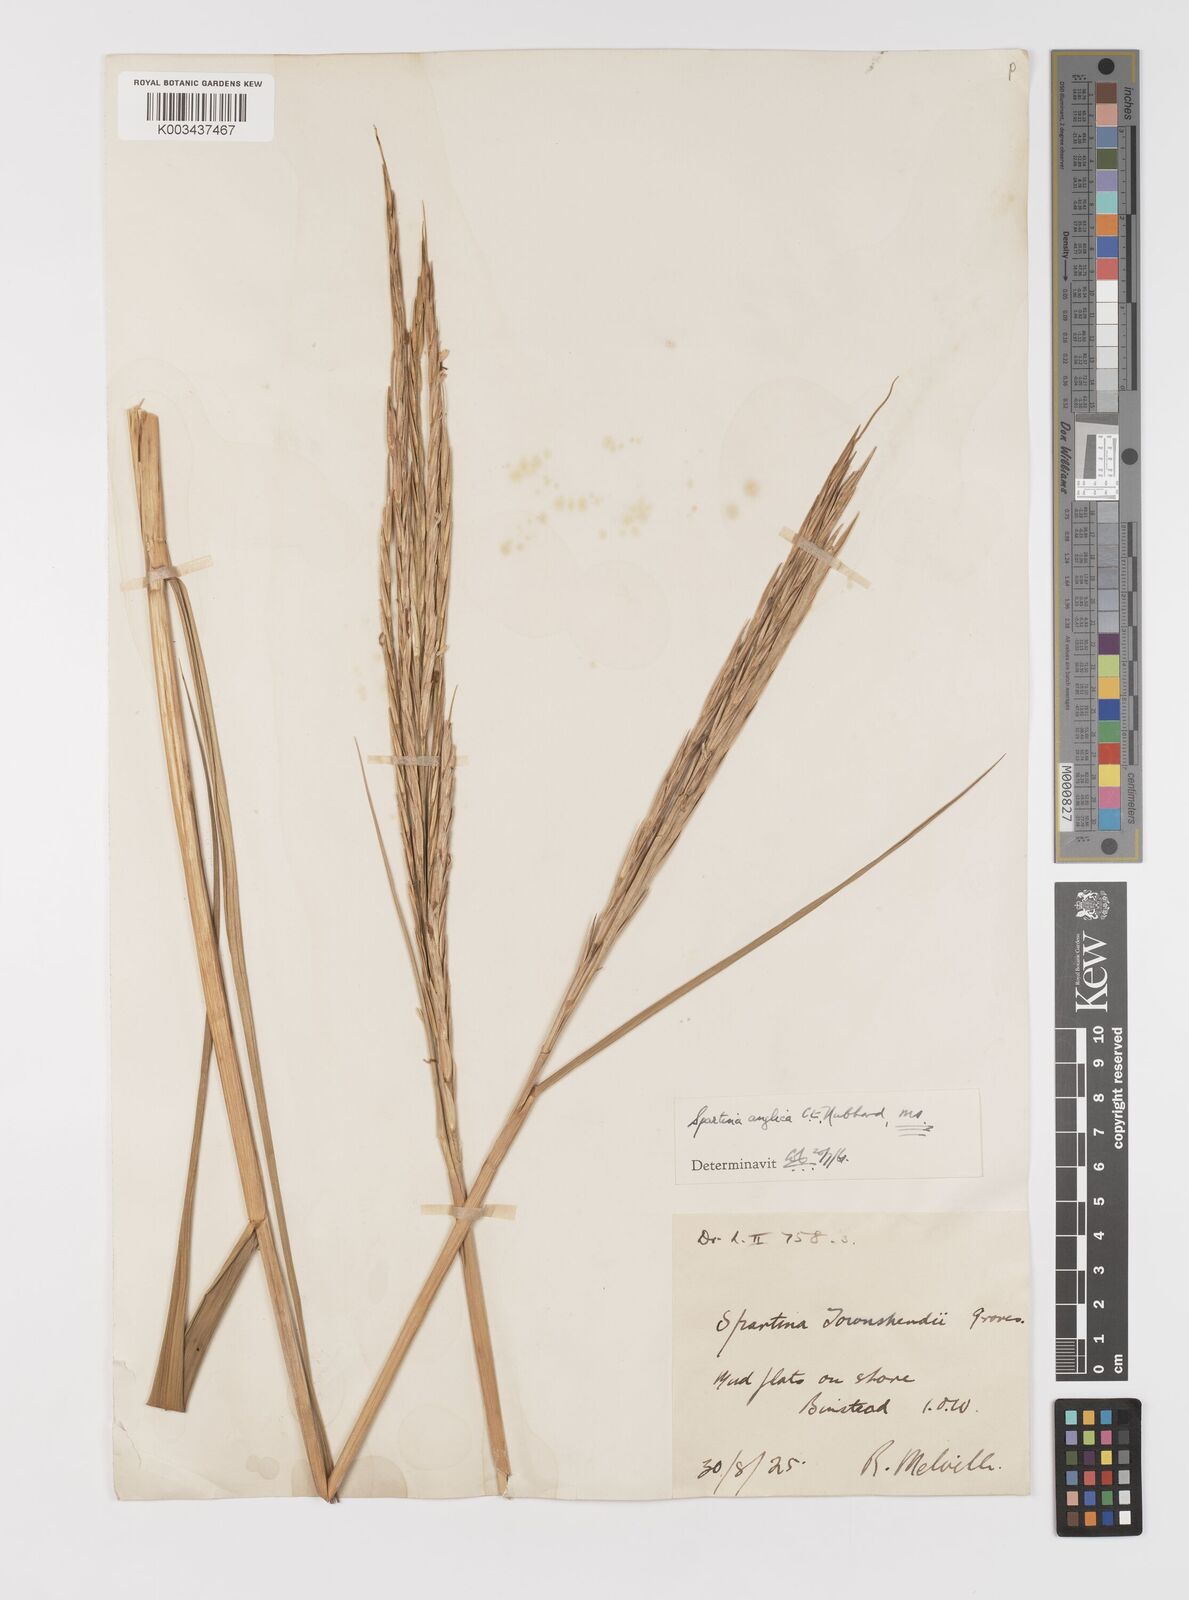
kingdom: Plantae
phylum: Tracheophyta
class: Liliopsida
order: Poales
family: Poaceae
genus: Sporobolus
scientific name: Sporobolus anglicus
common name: English cordgrass
